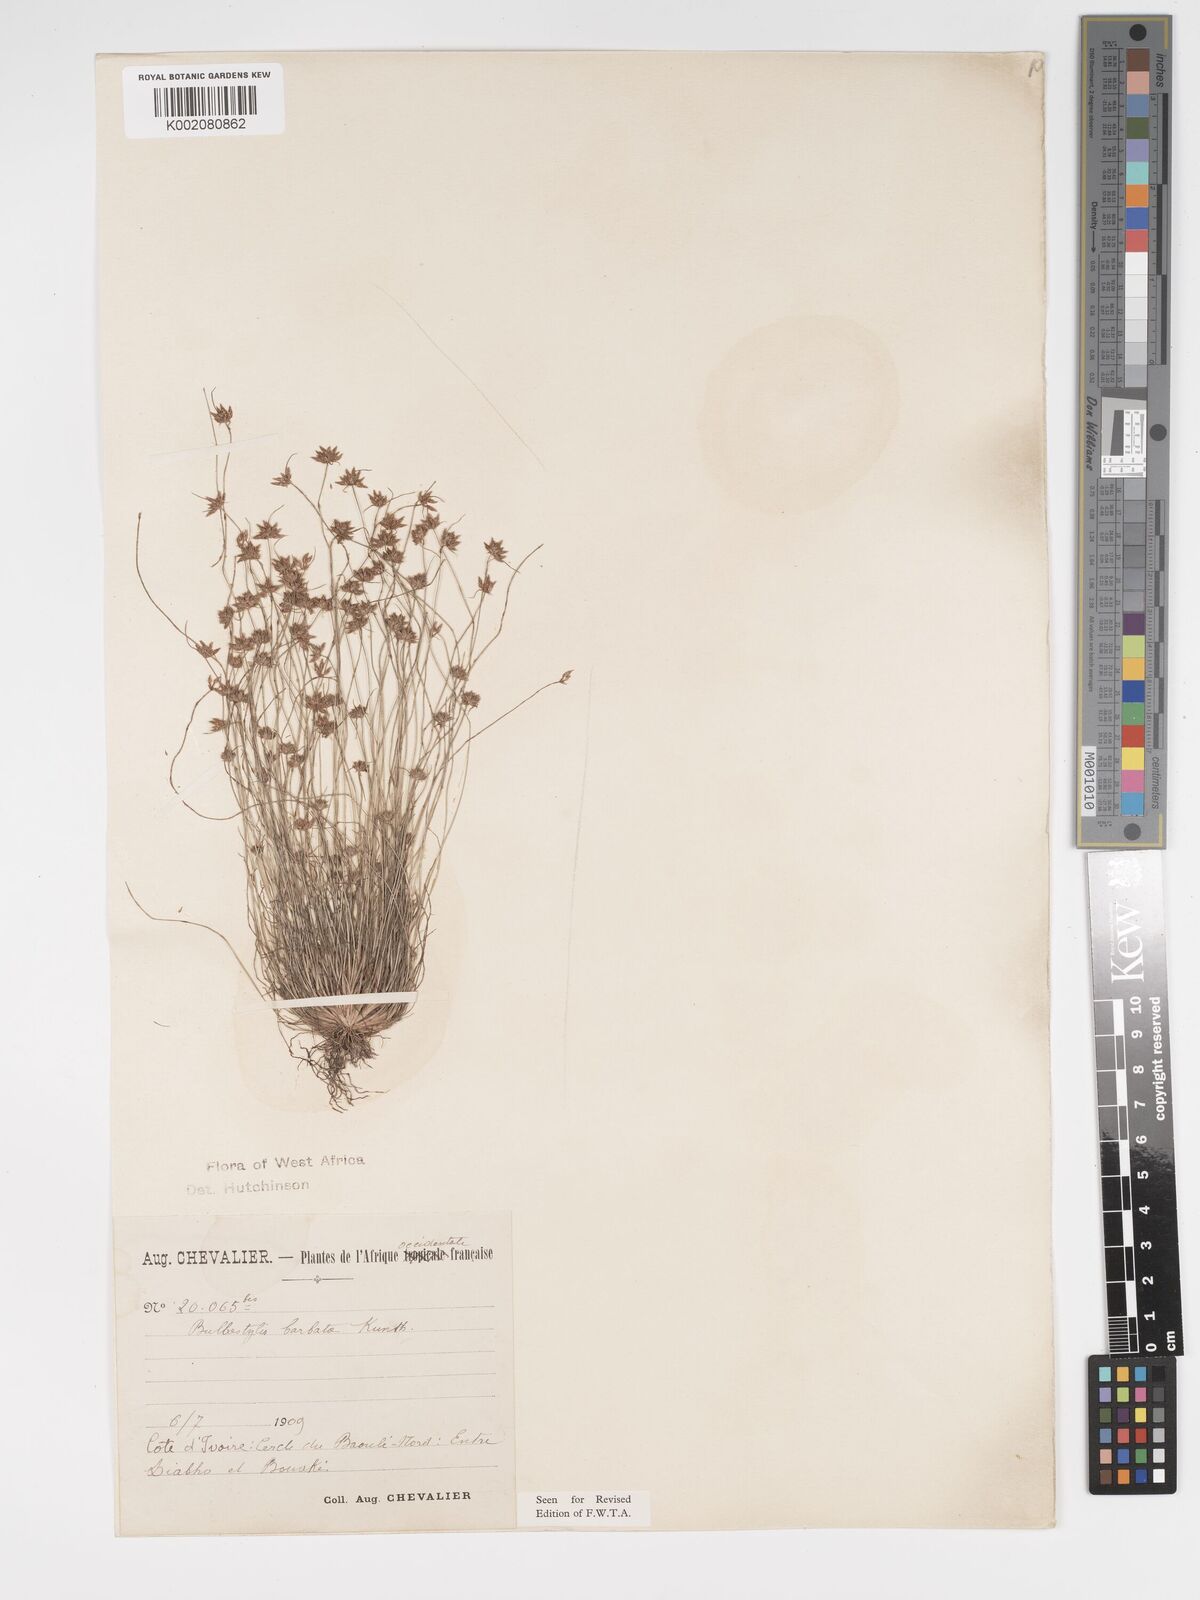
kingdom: Plantae
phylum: Tracheophyta
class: Liliopsida
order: Poales
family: Cyperaceae
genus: Bulbostylis
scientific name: Bulbostylis barbata
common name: Watergrass
